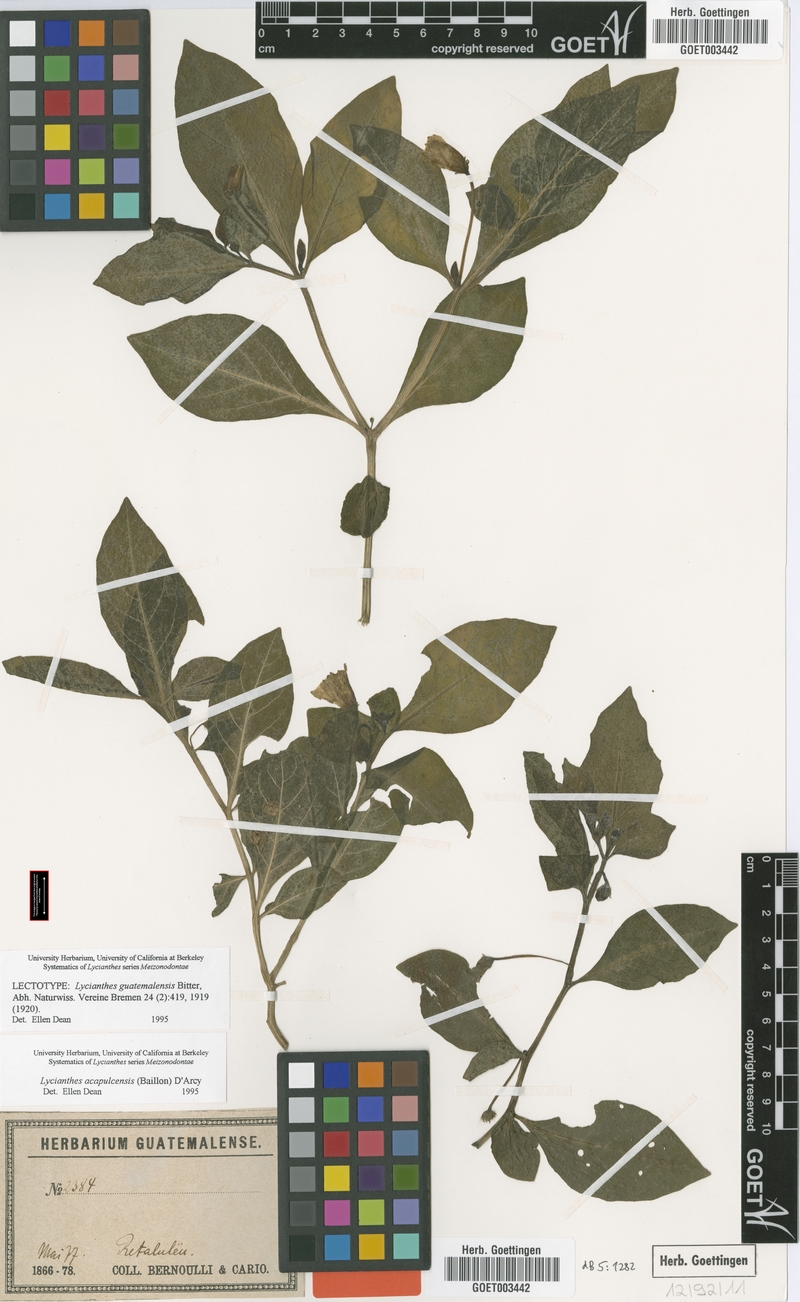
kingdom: Plantae
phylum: Tracheophyta
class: Magnoliopsida
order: Solanales
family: Solanaceae
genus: Lycianthes
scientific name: Lycianthes acapulcensis
